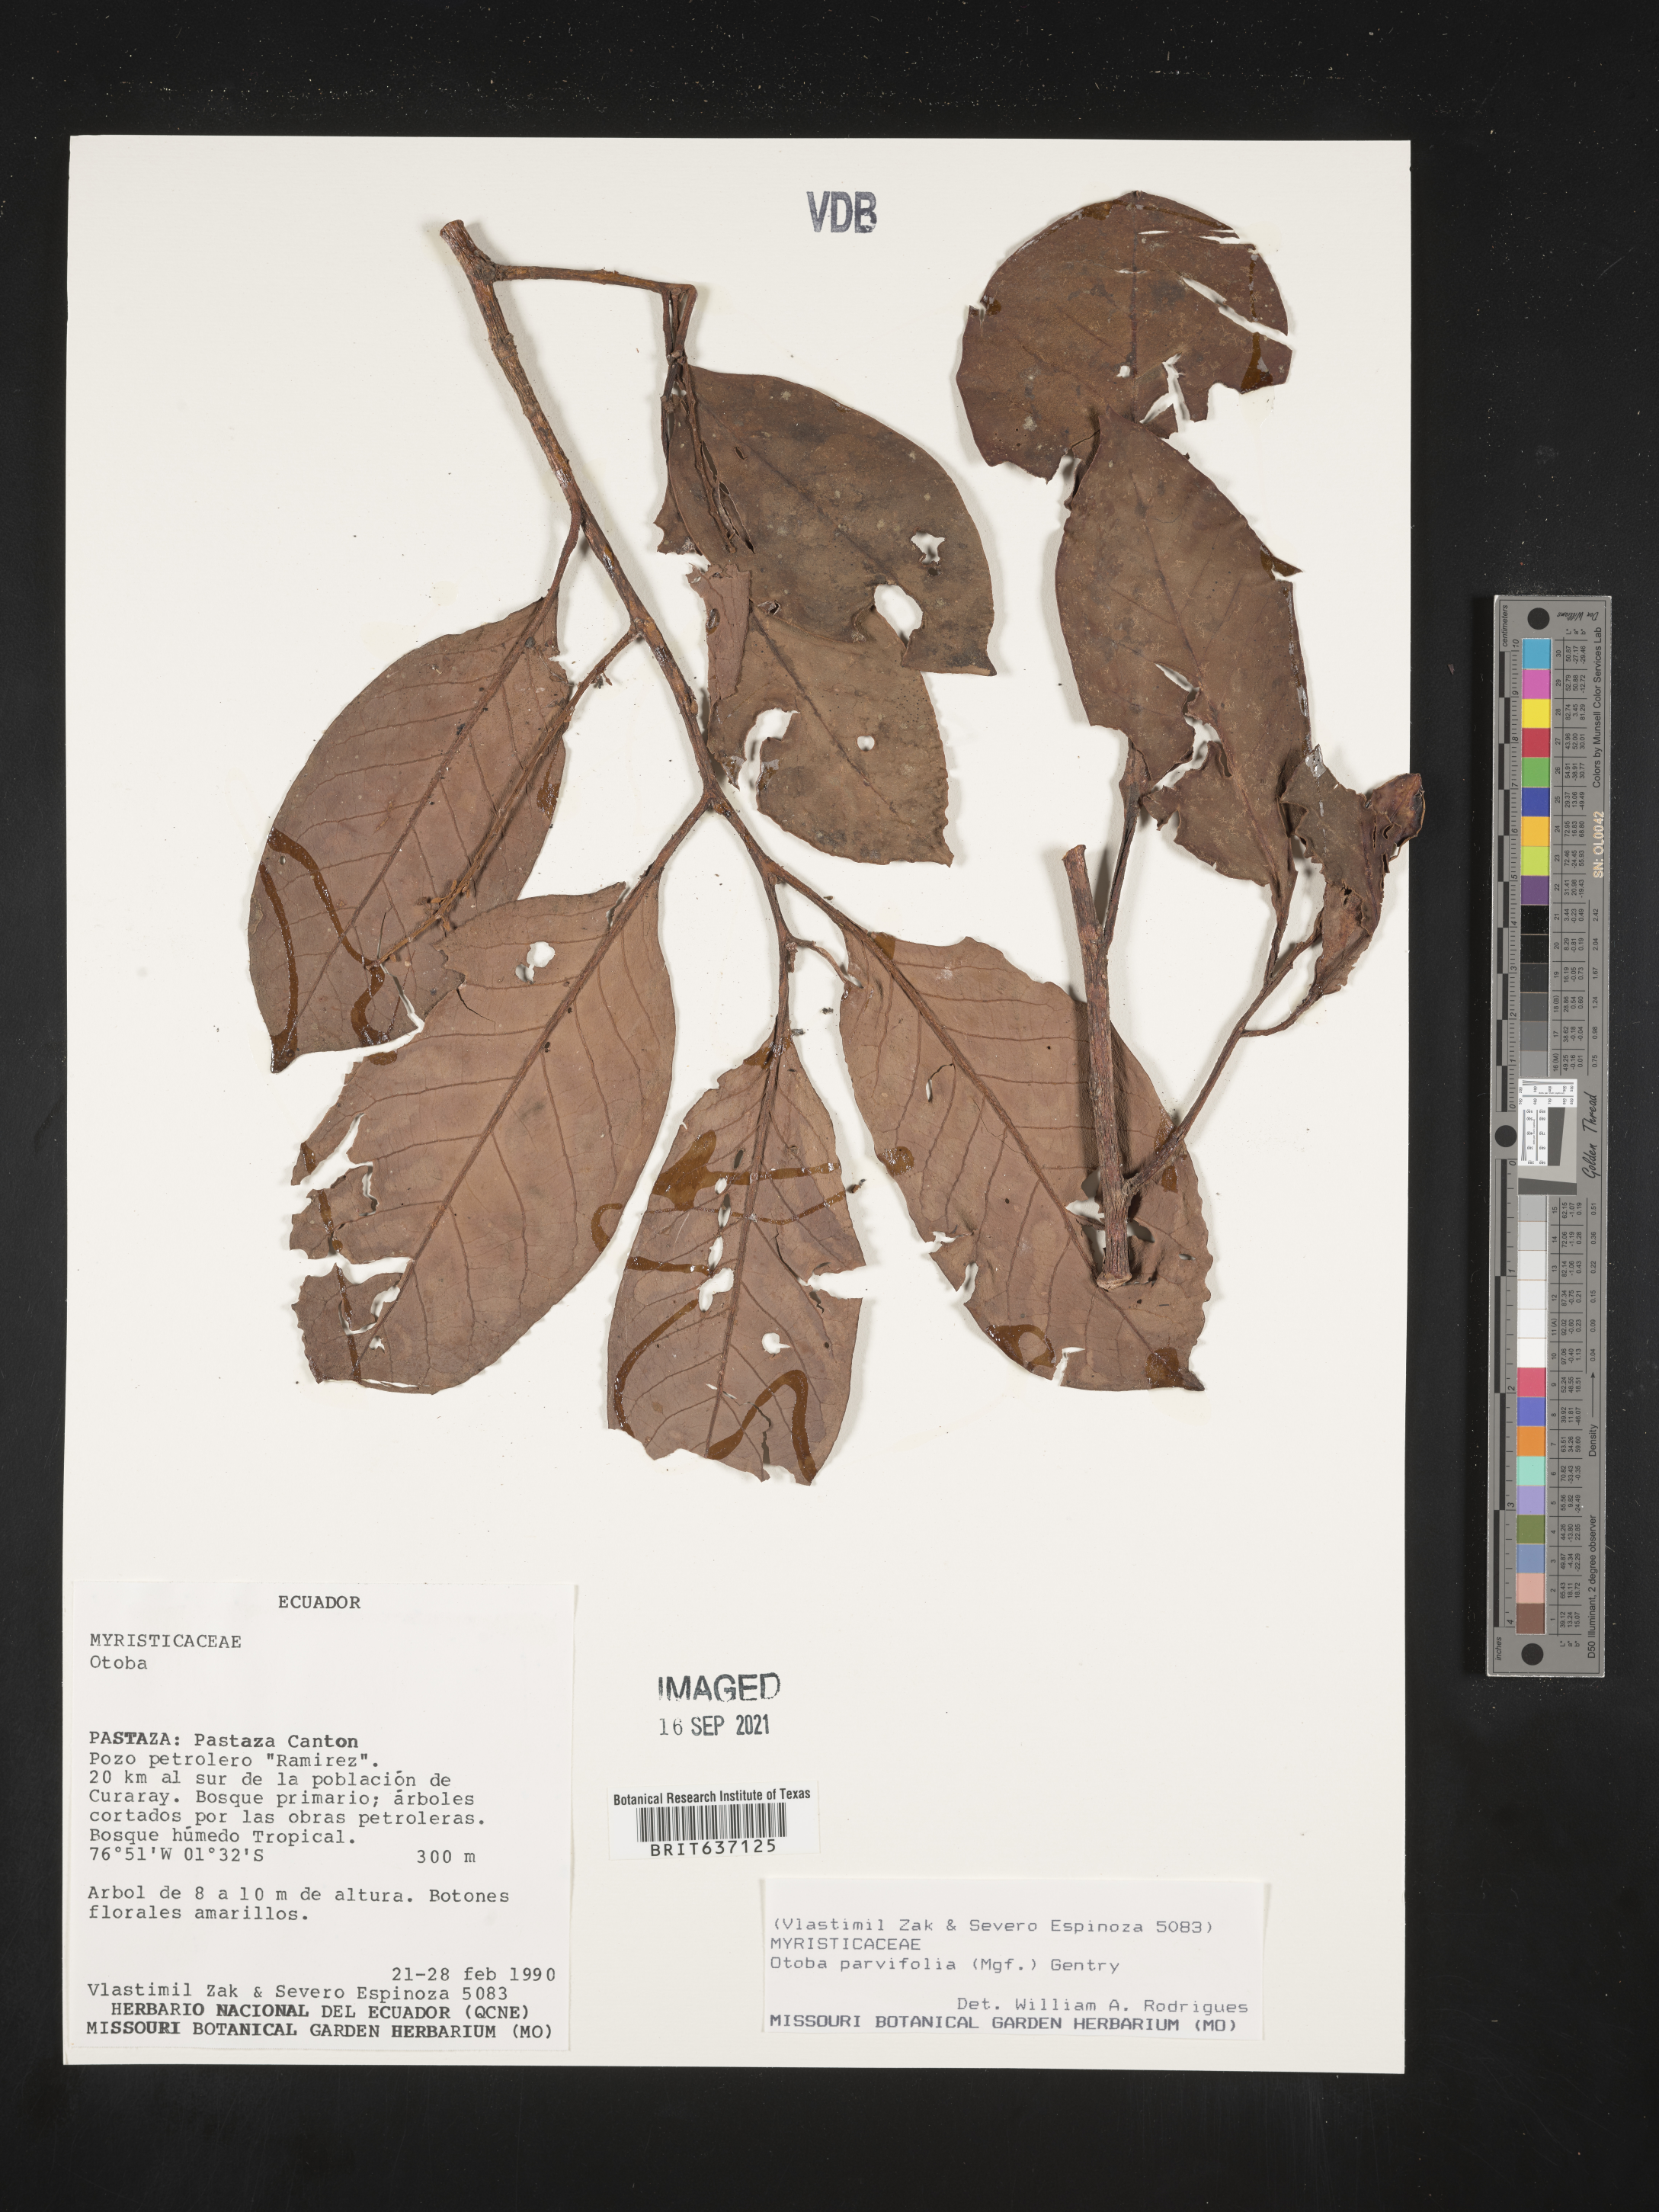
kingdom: Plantae
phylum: Tracheophyta
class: Magnoliopsida
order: Magnoliales
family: Myristicaceae
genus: Otoba
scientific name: Otoba
